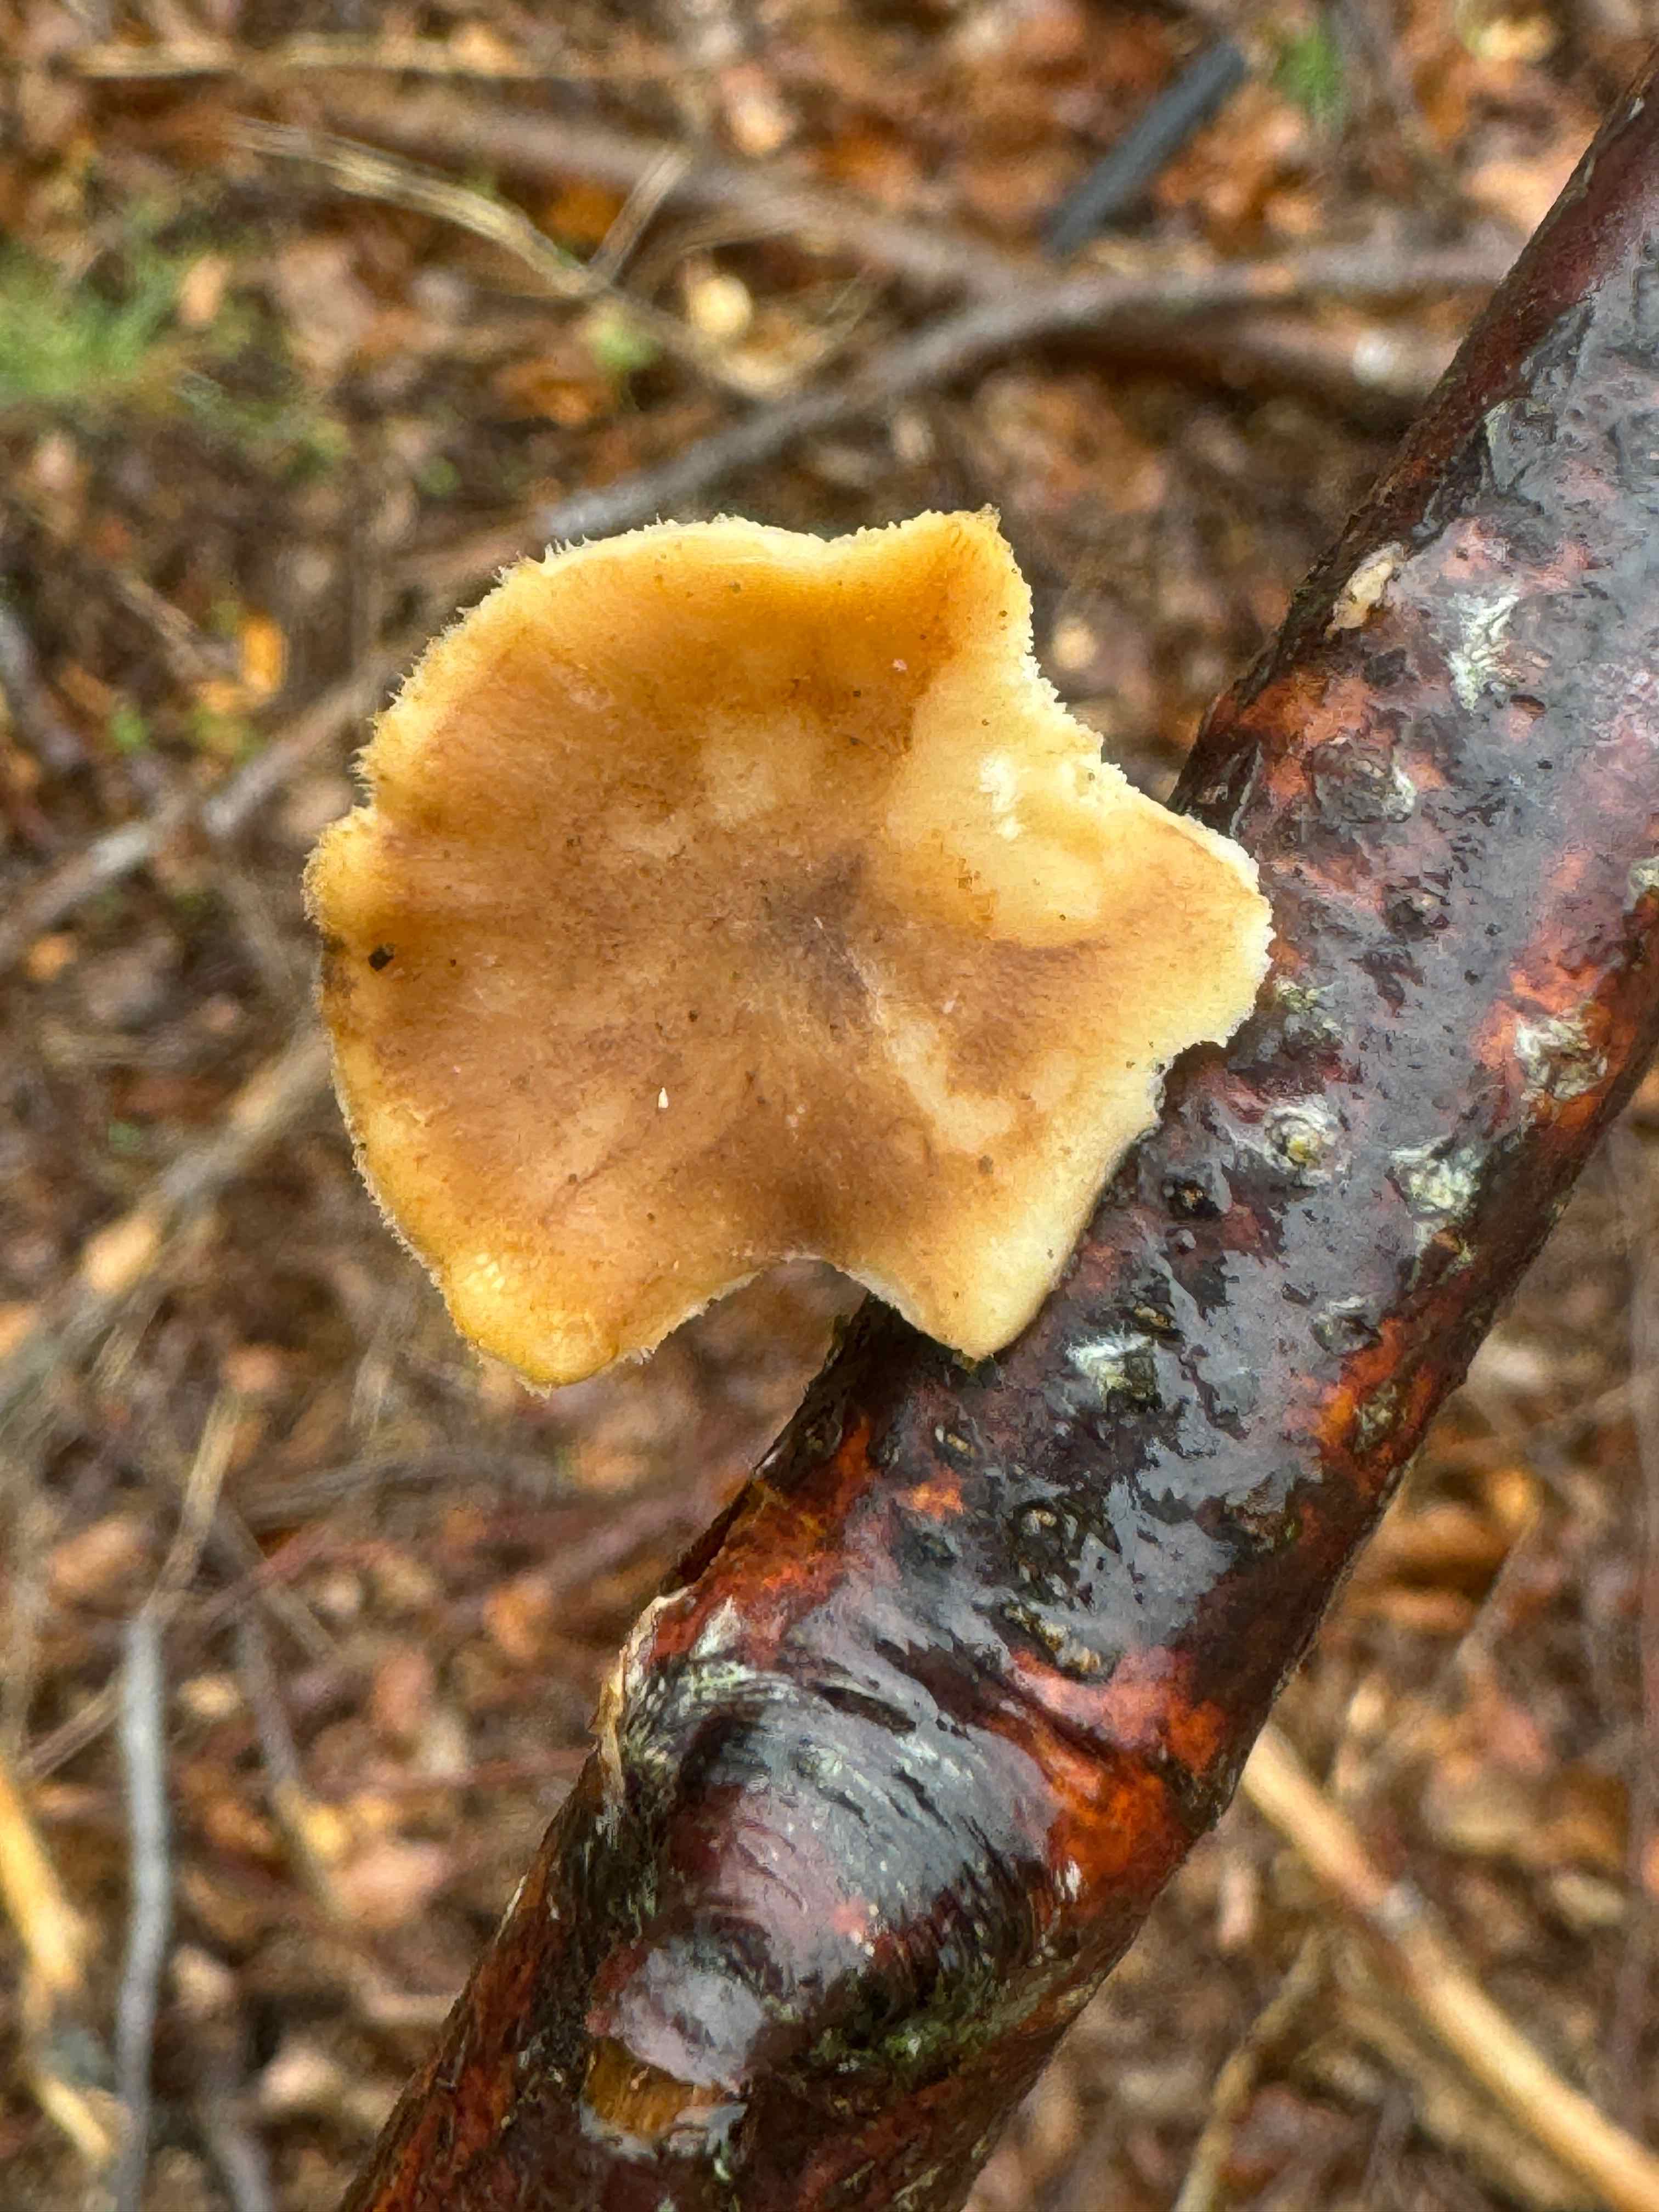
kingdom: Fungi
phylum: Basidiomycota
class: Agaricomycetes
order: Polyporales
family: Polyporaceae
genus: Lentinus
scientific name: Lentinus brumalis
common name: vinter-stilkporesvamp
